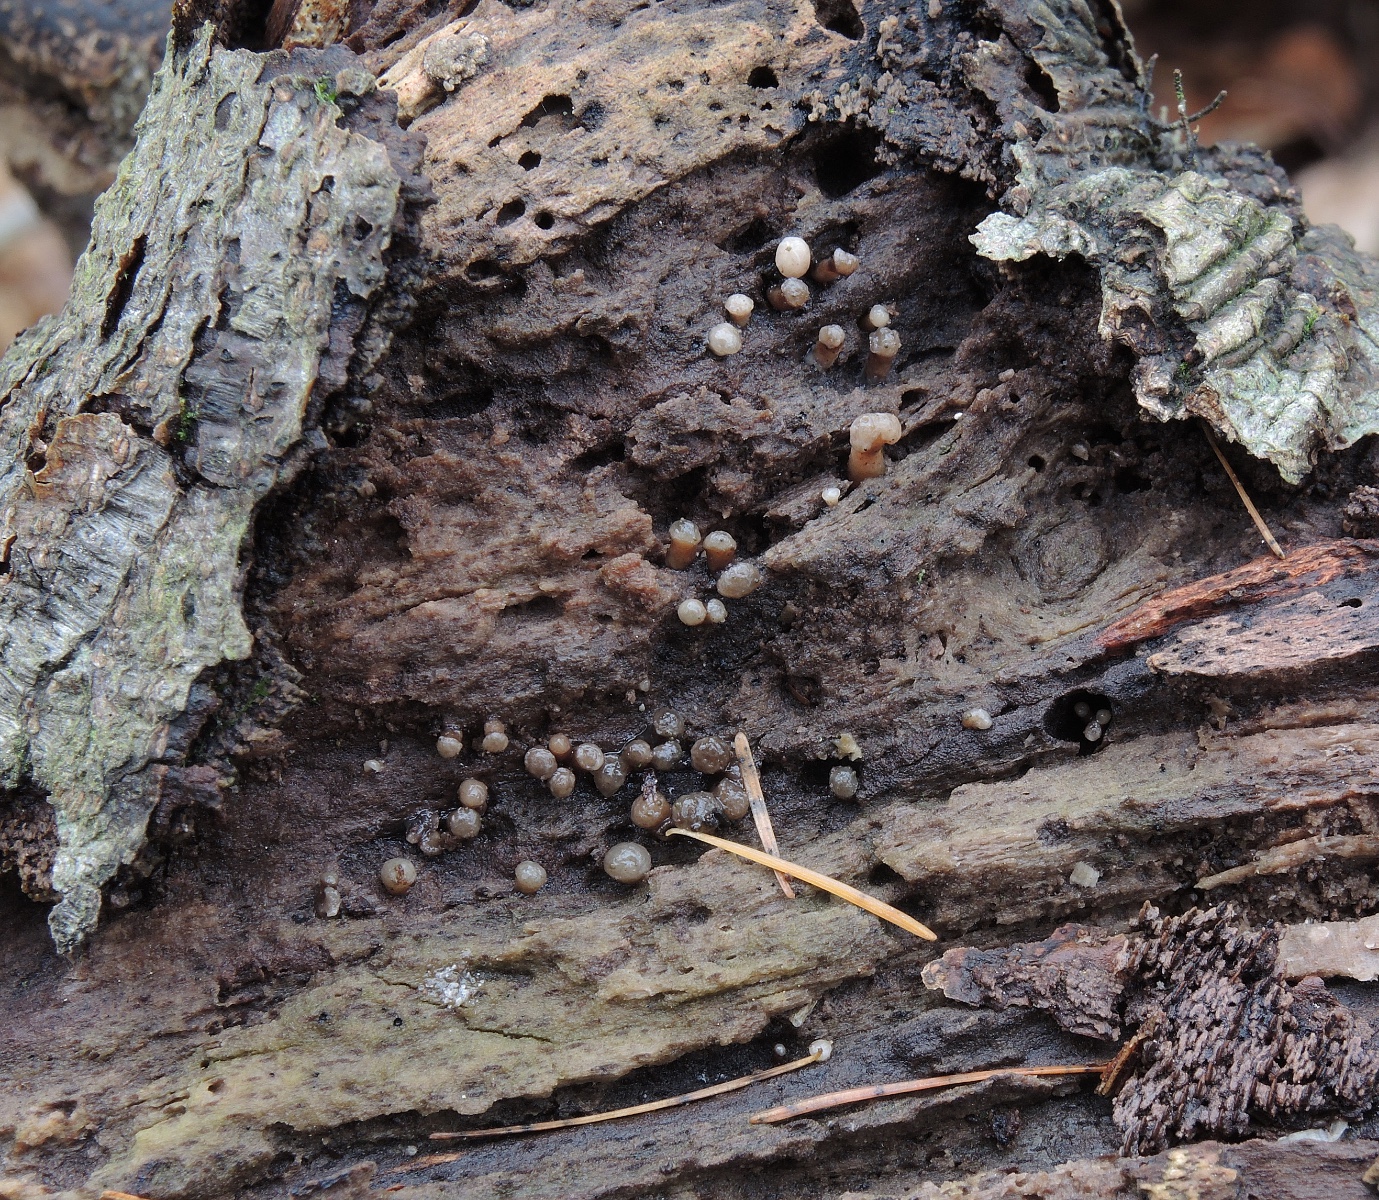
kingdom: Fungi
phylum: Ascomycota
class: Leotiomycetes
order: Helotiales
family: Gelatinodiscaceae
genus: Ascocoryne
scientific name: Ascocoryne albida
